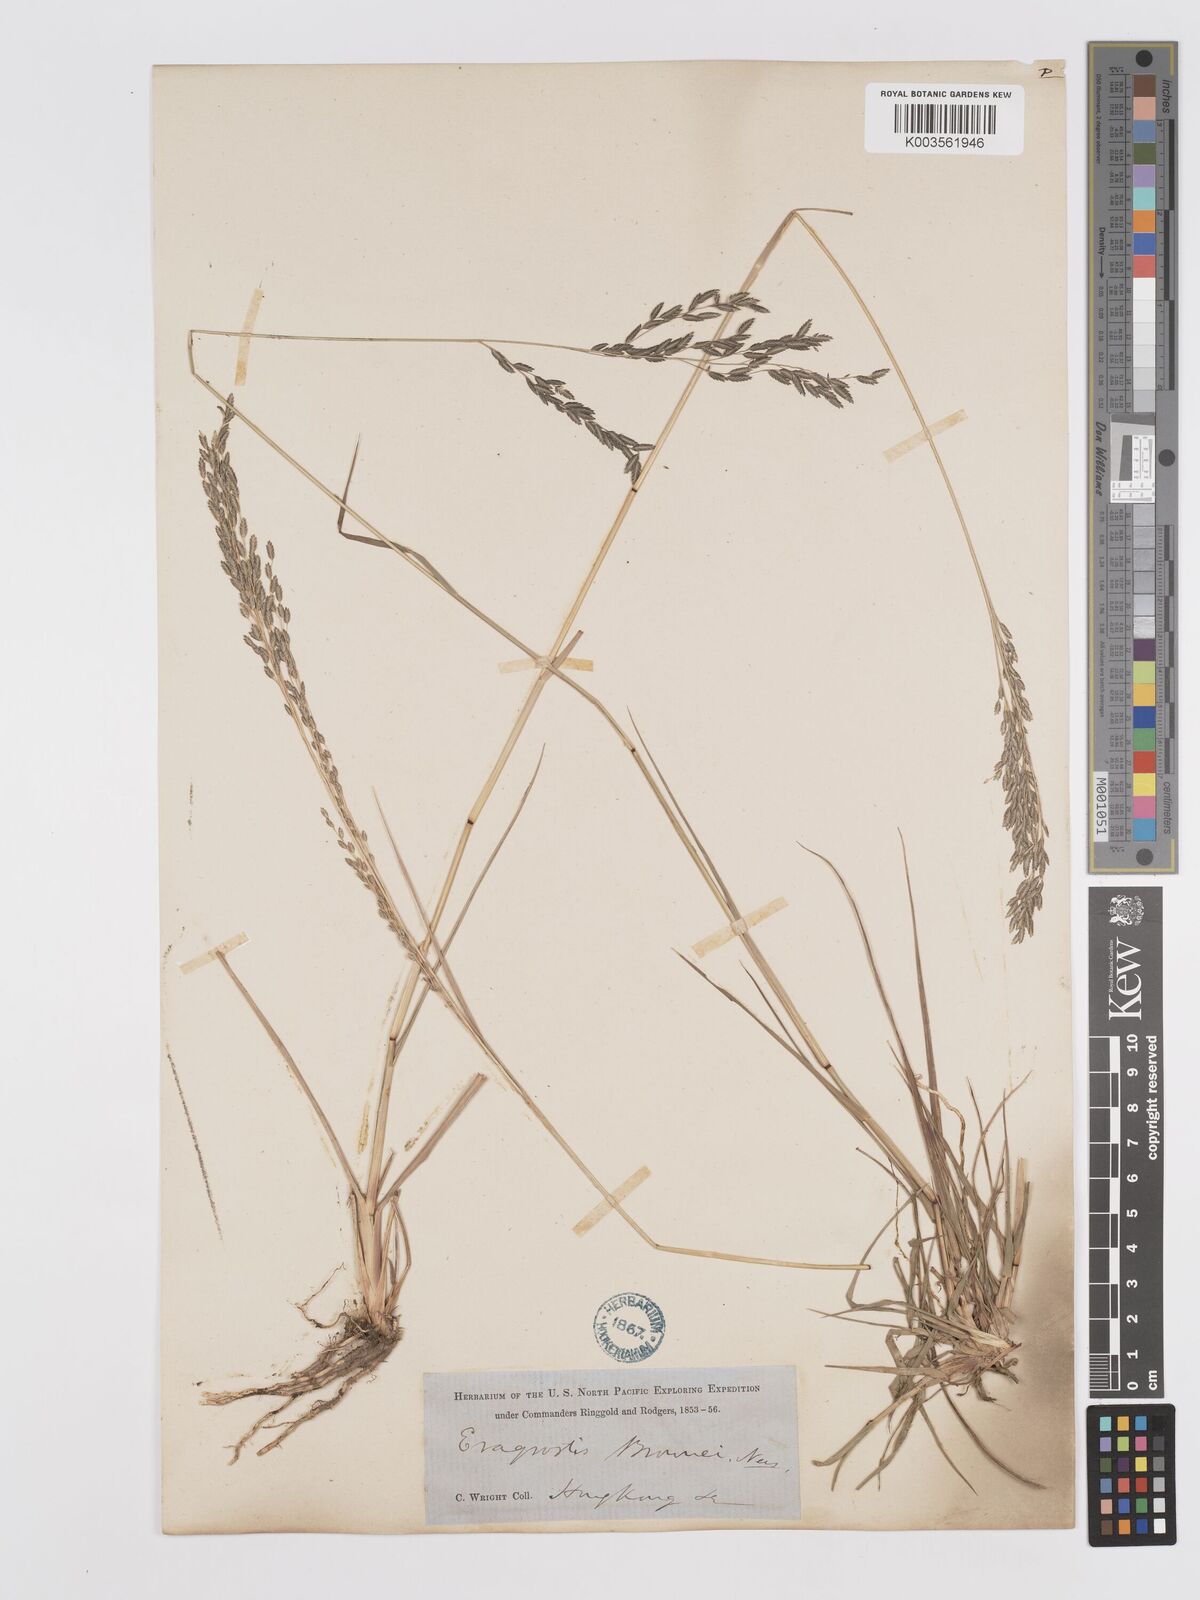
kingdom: Plantae
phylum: Tracheophyta
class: Liliopsida
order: Poales
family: Poaceae
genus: Eragrostis
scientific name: Eragrostis atrovirens
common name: Thalia lovegrass
